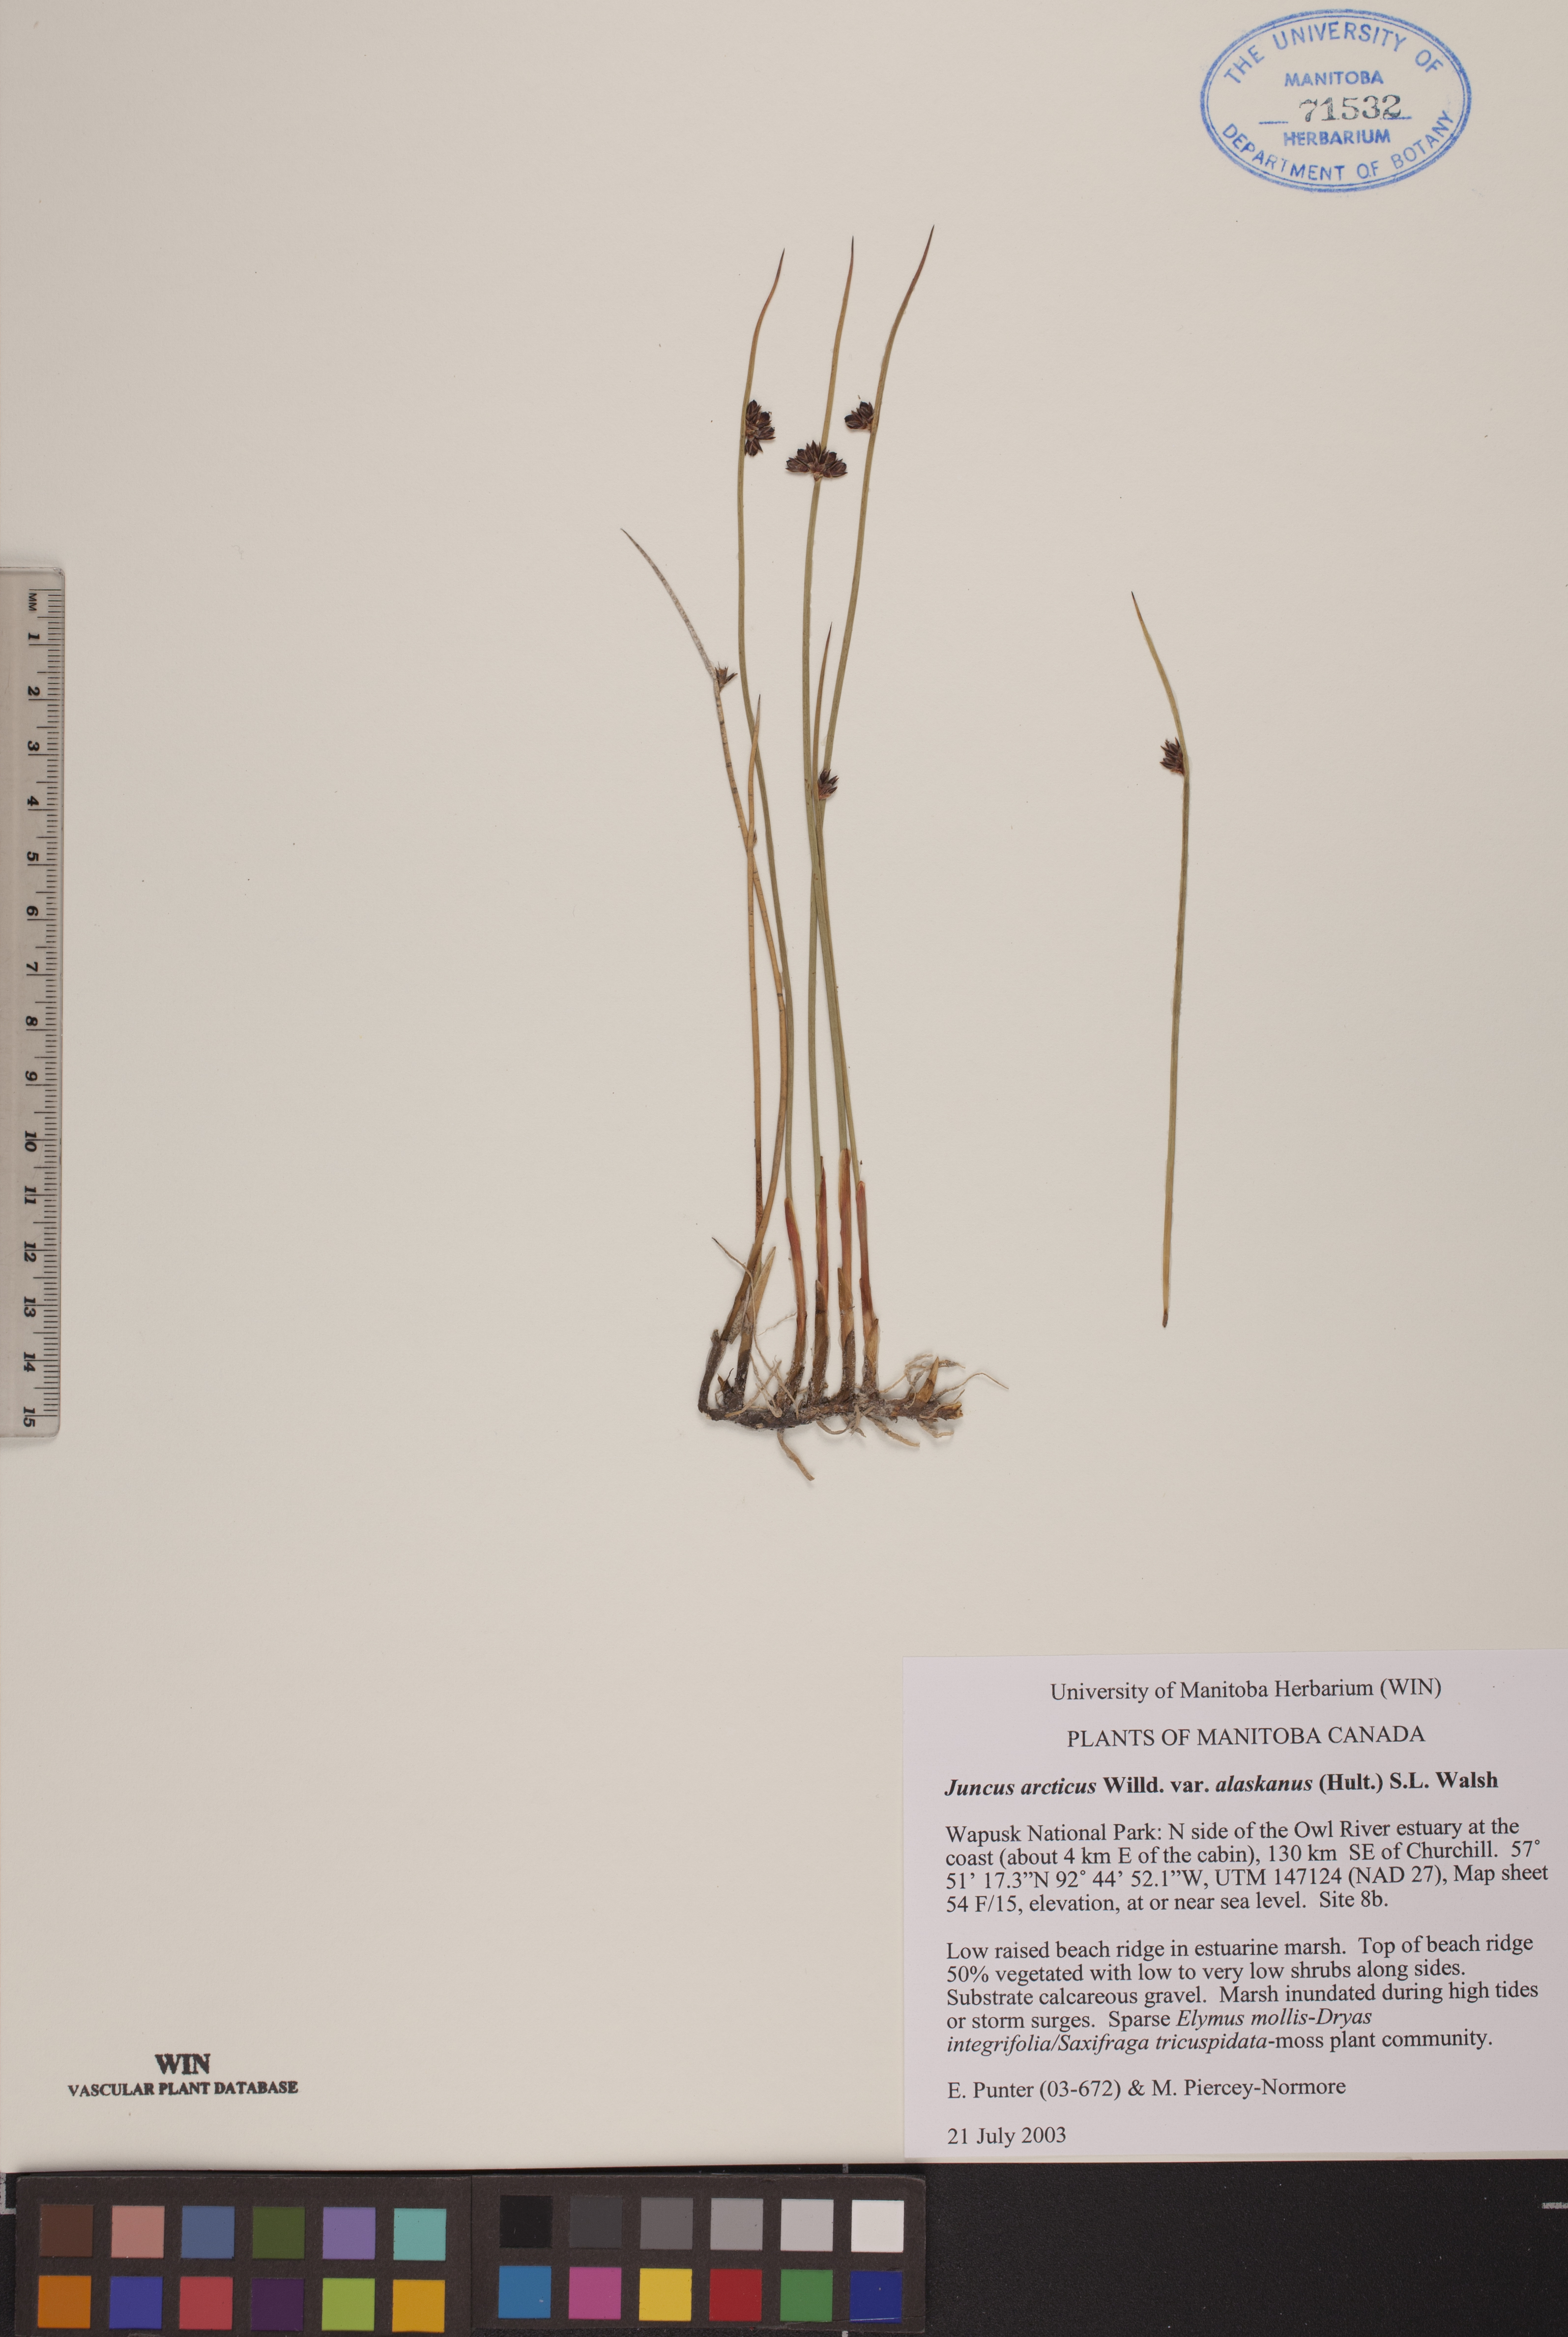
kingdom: Plantae
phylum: Tracheophyta
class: Liliopsida
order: Poales
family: Juncaceae
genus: Juncus
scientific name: Juncus arcticus
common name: Arctic rush
